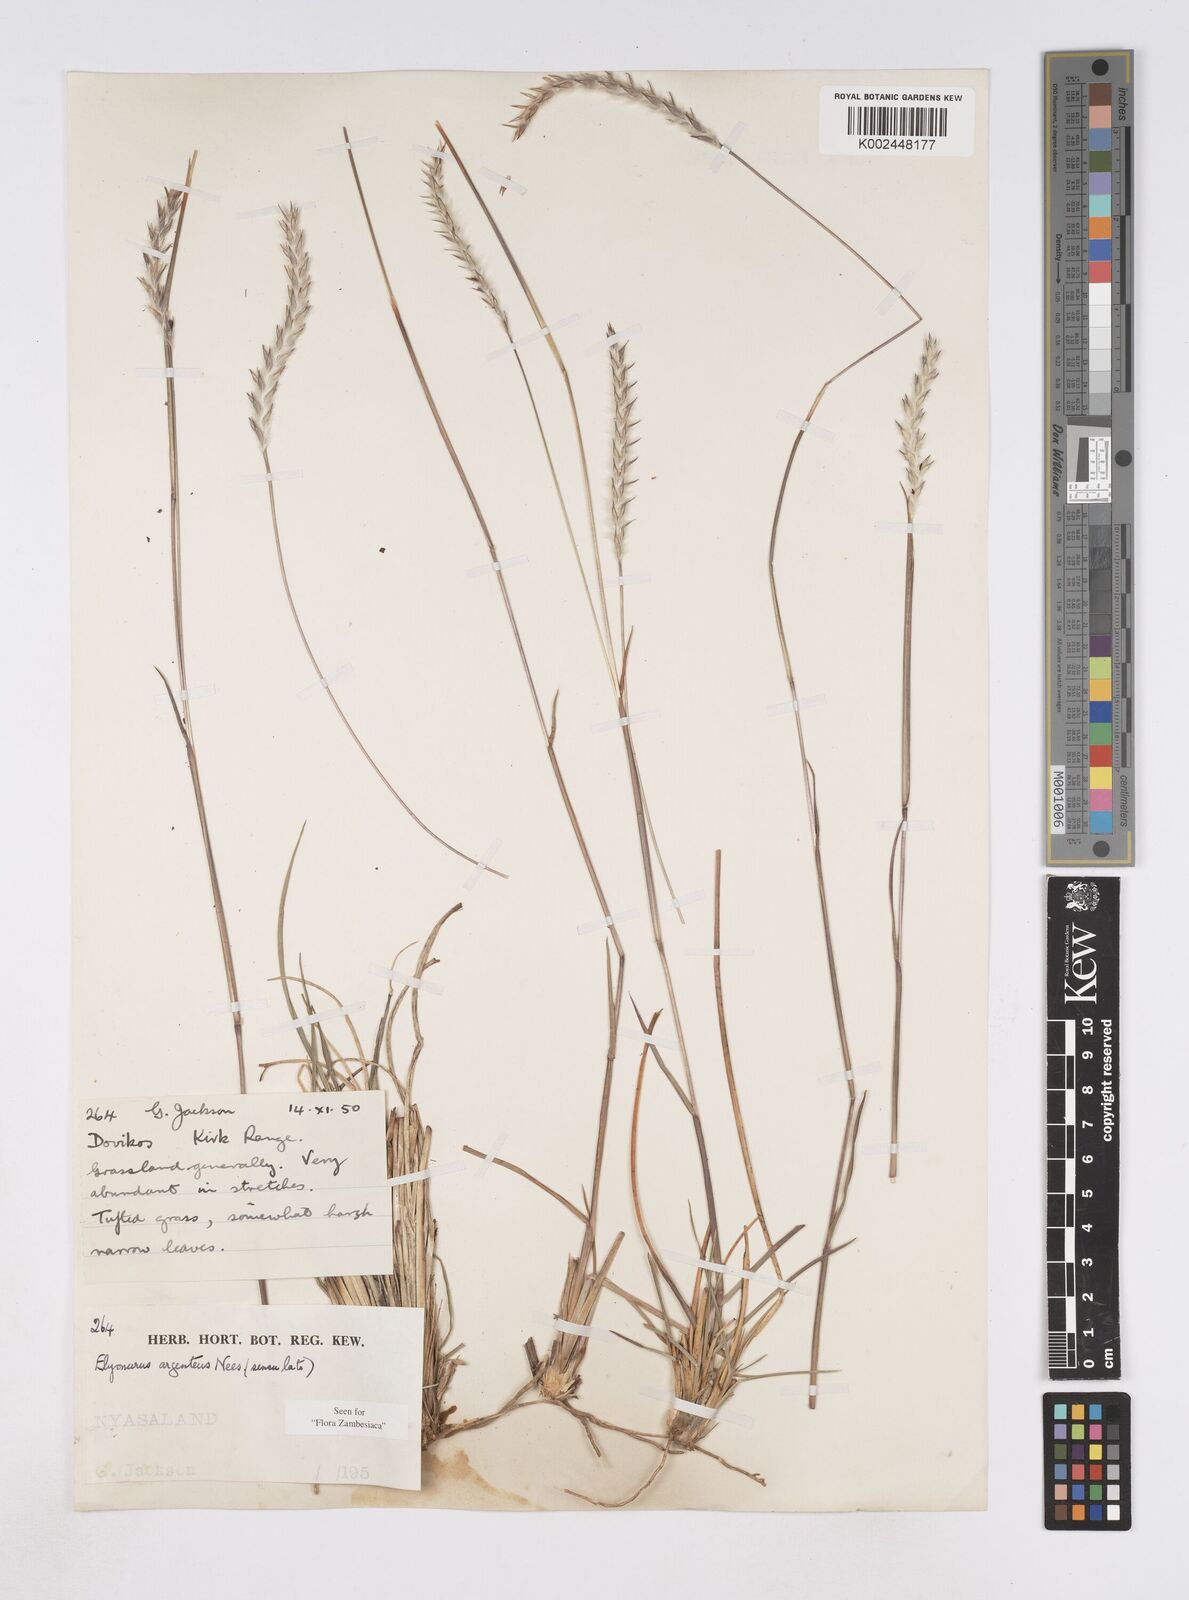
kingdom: Plantae
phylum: Tracheophyta
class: Liliopsida
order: Poales
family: Poaceae
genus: Elionurus
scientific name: Elionurus muticus
